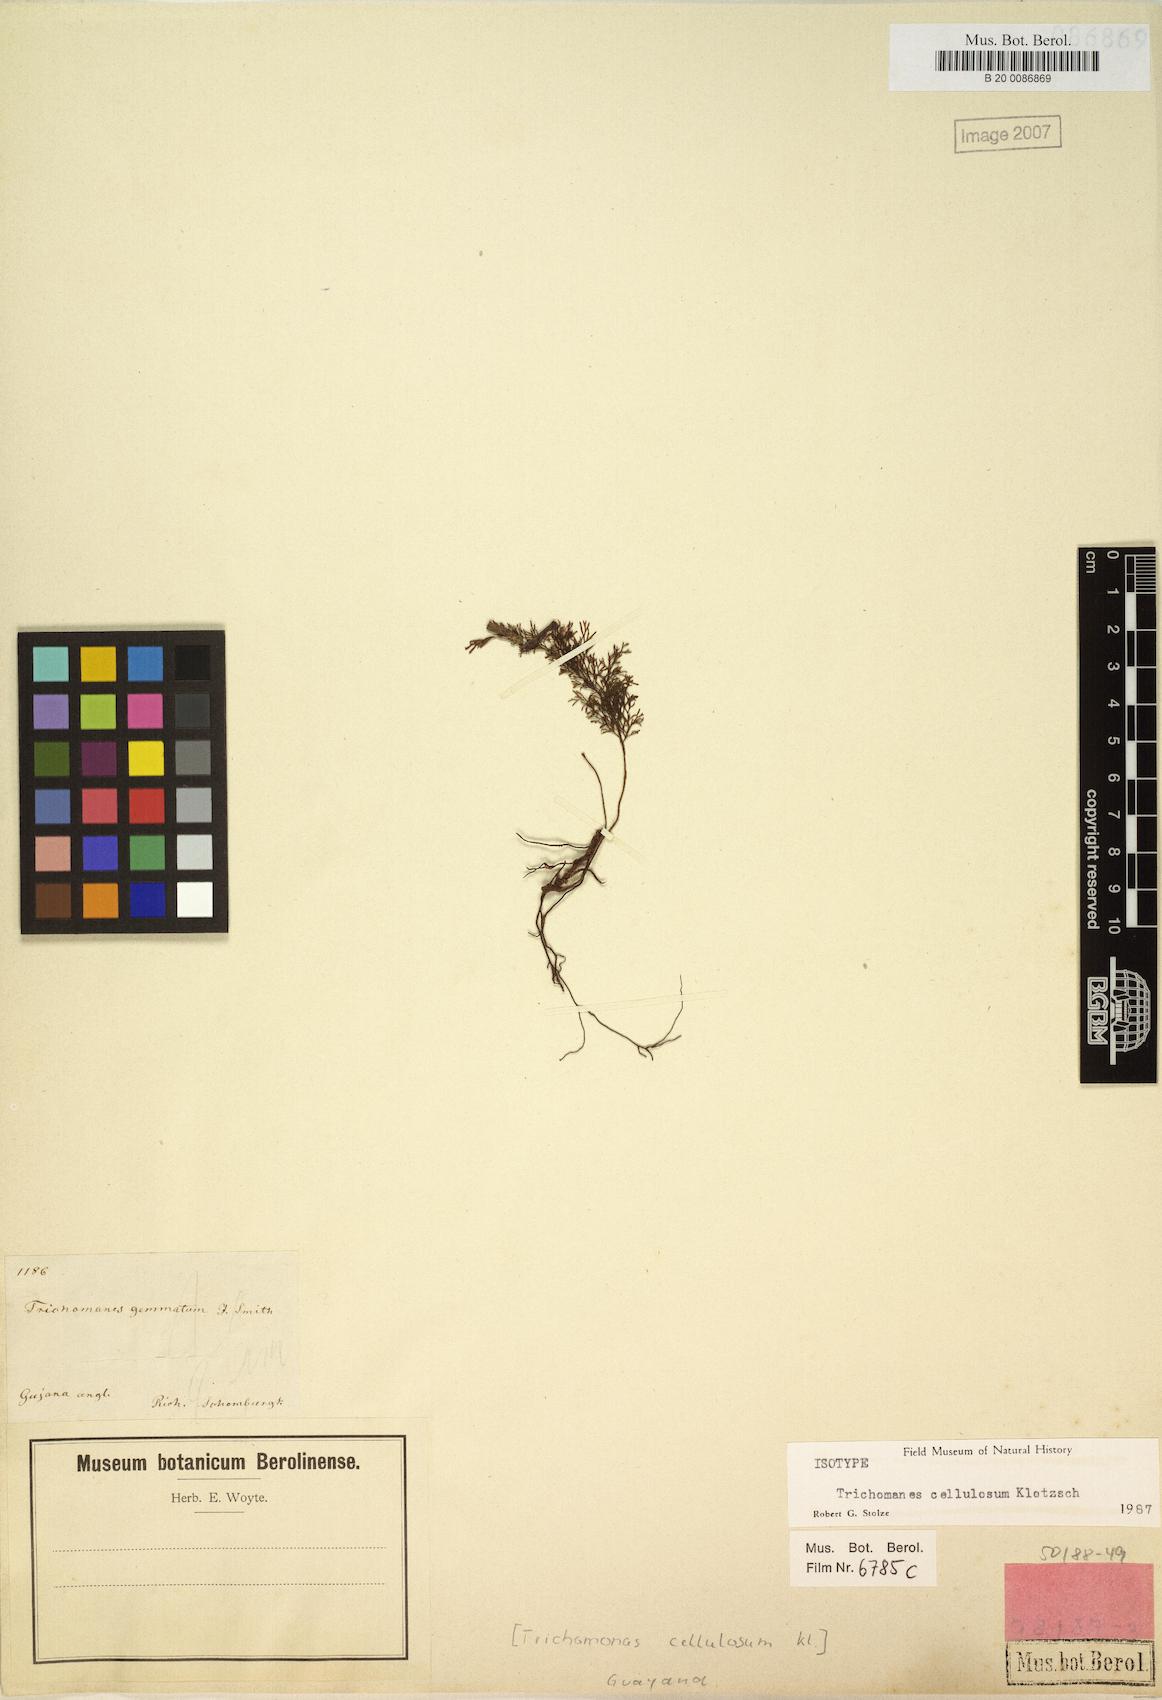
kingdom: Plantae
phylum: Tracheophyta
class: Polypodiopsida
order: Hymenophyllales
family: Hymenophyllaceae
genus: Abrodictyum
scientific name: Abrodictyum cellulosum
